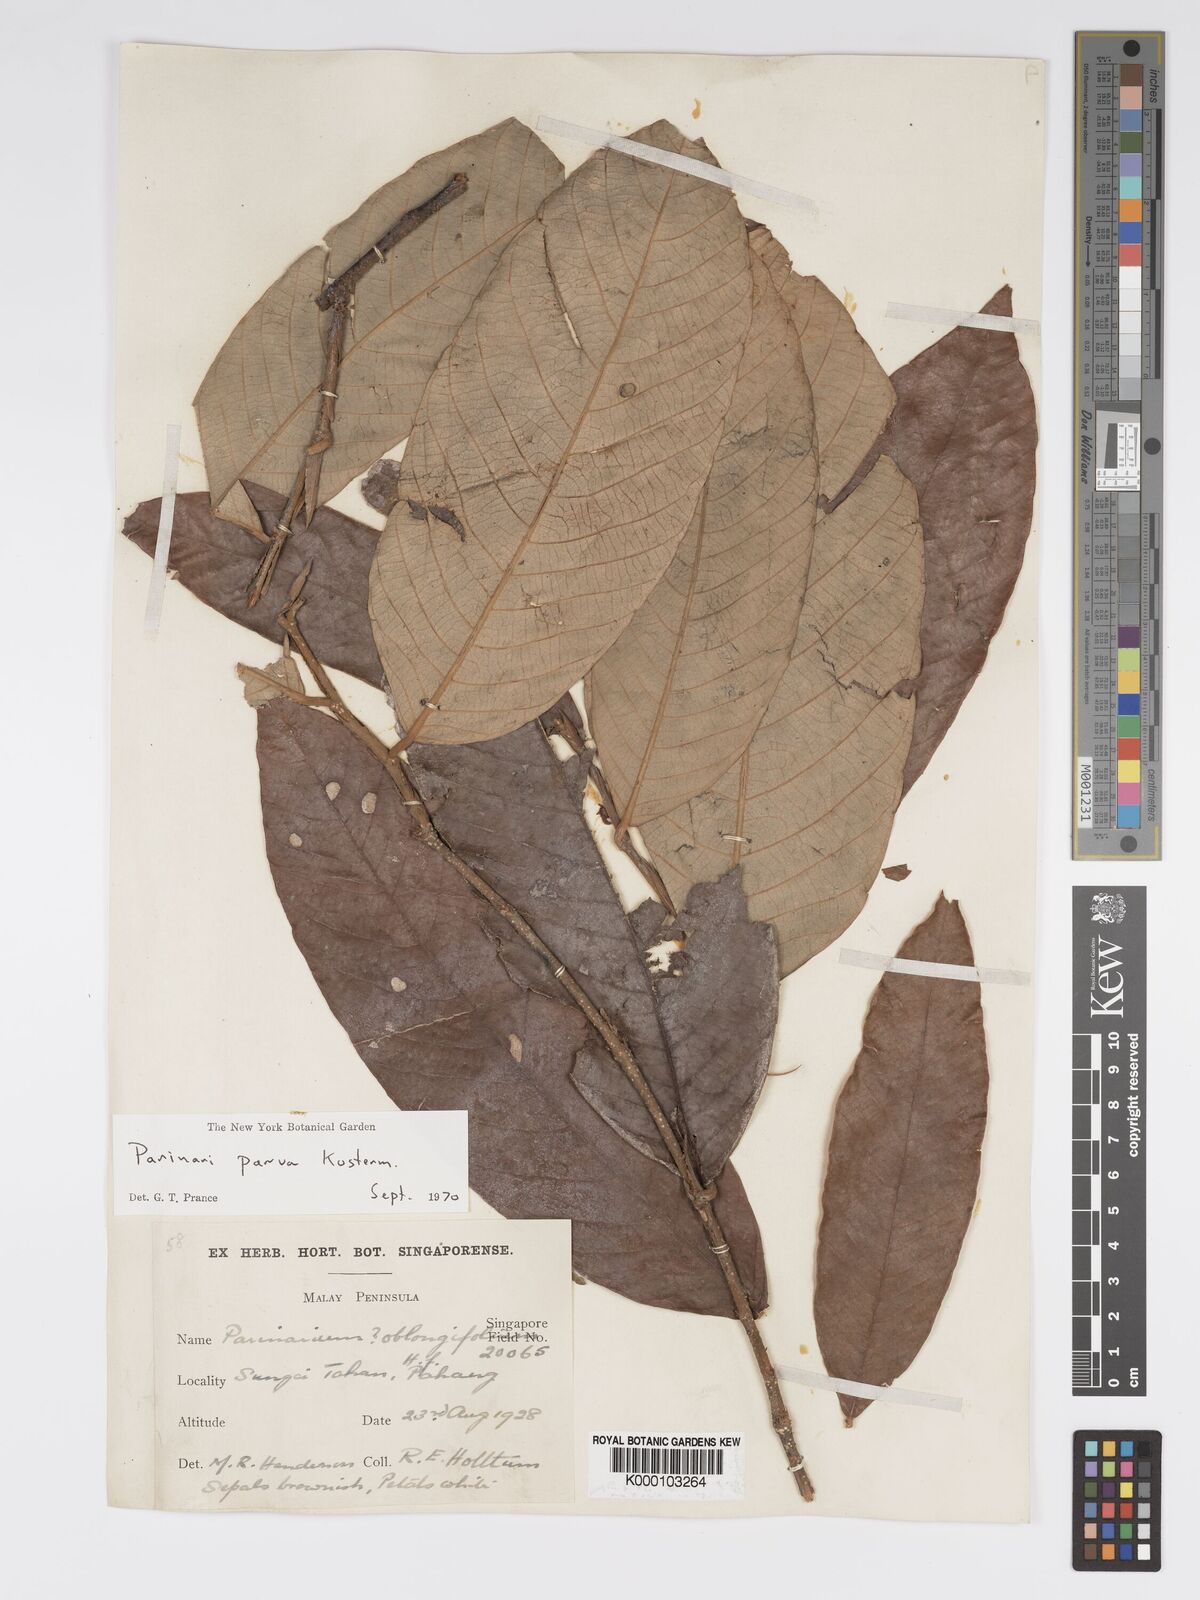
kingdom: Plantae
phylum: Tracheophyta
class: Magnoliopsida
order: Malpighiales
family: Chrysobalanaceae
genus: Parinari
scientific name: Parinari parva
